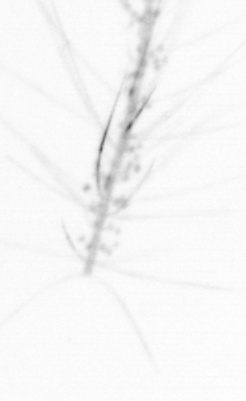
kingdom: Chromista
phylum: Ochrophyta
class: Bacillariophyceae
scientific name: Bacillariophyceae
